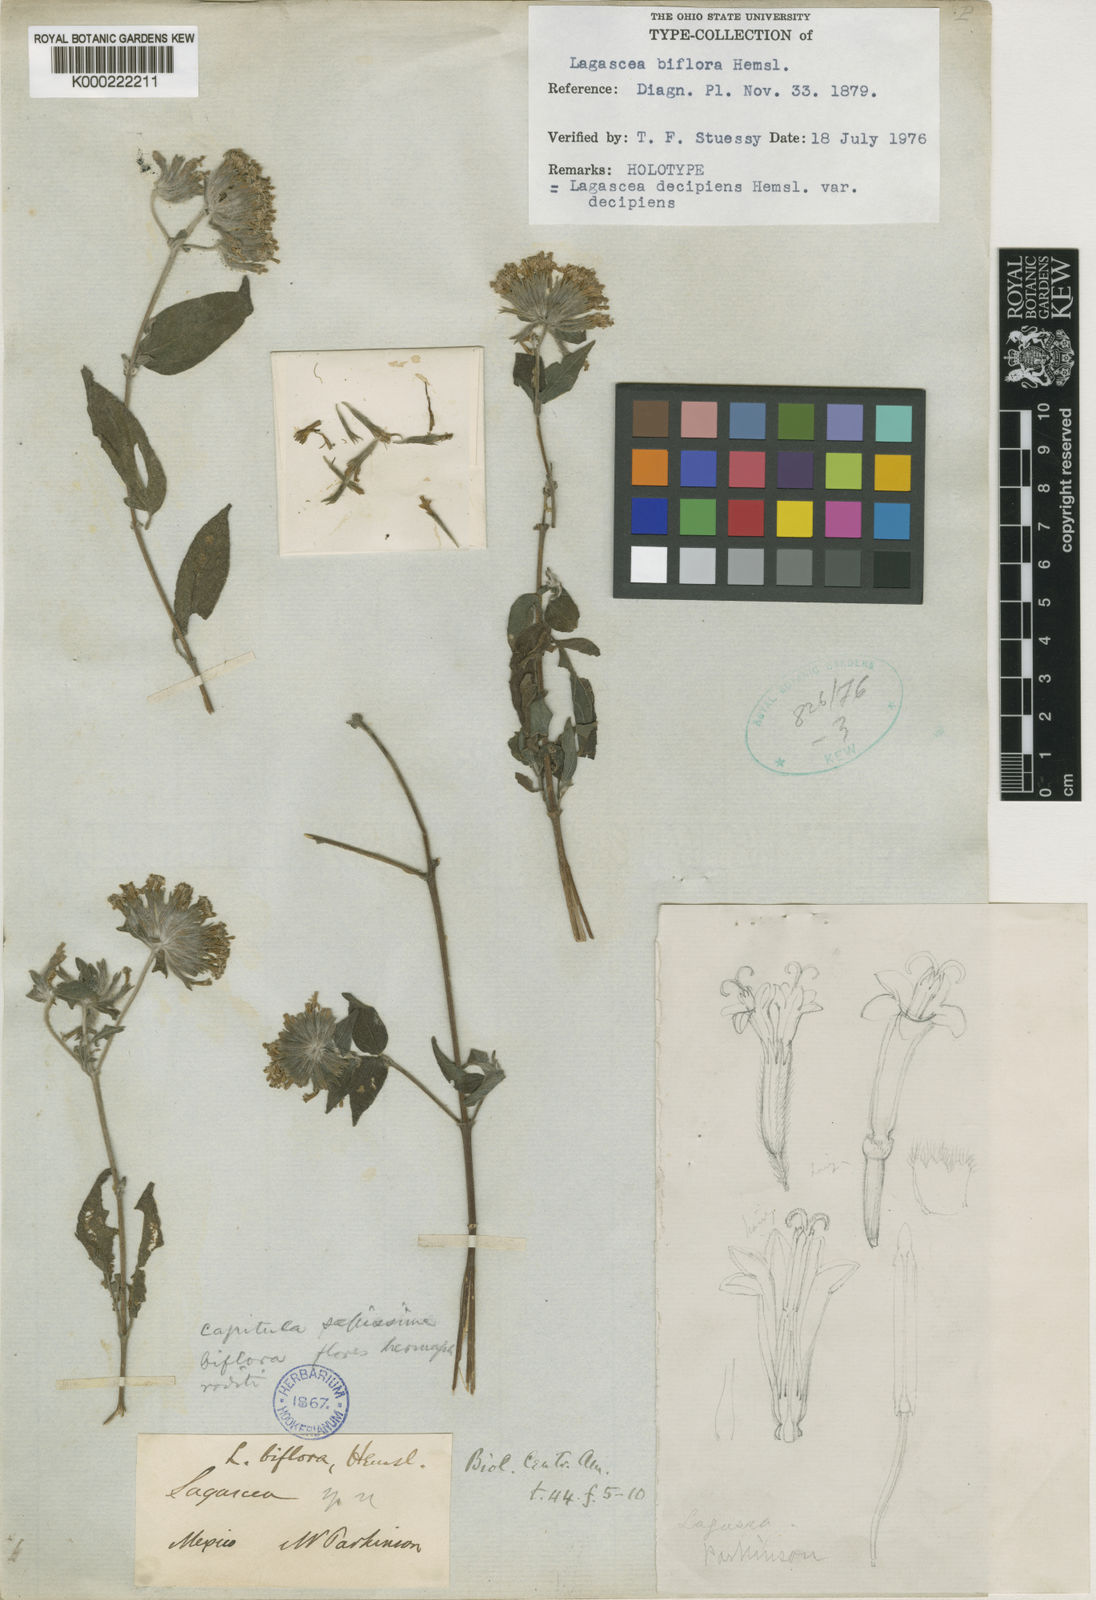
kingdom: Plantae
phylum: Tracheophyta
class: Magnoliopsida
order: Asterales
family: Asteraceae
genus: Lagascea
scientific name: Lagascea decipiens
